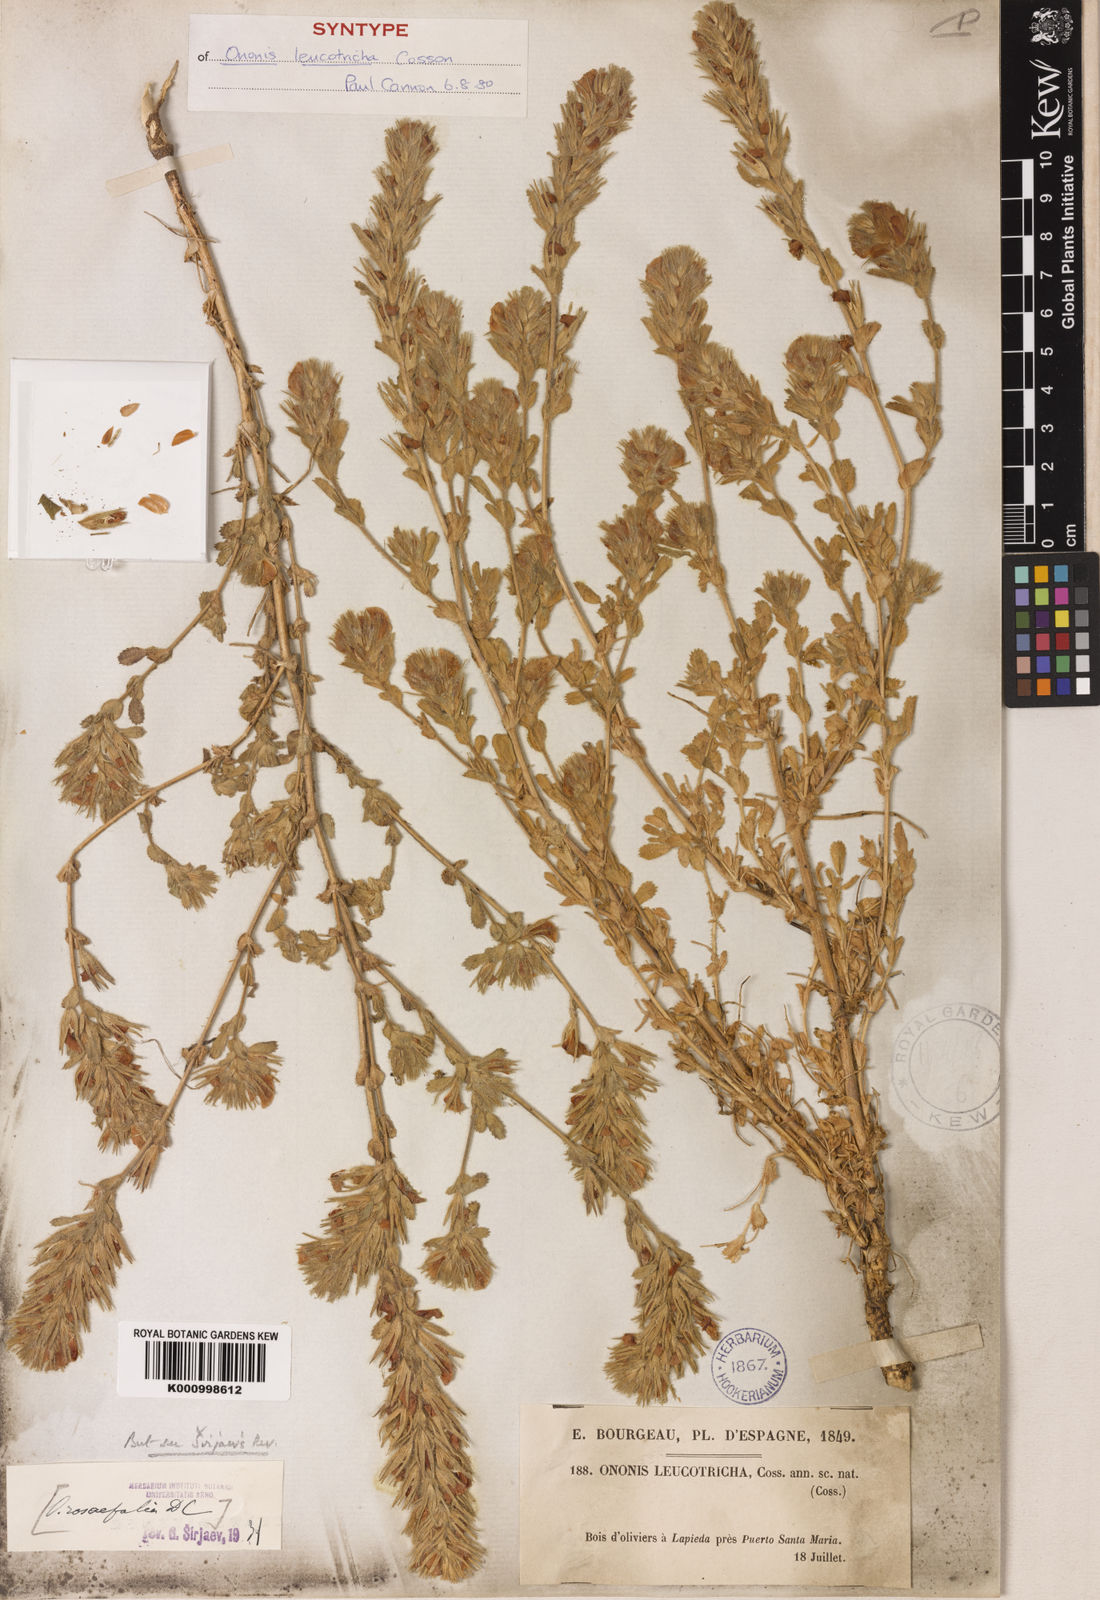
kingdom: Plantae
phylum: Tracheophyta
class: Magnoliopsida
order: Fabales
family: Fabaceae
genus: Ononis
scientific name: Ononis leucotricha
